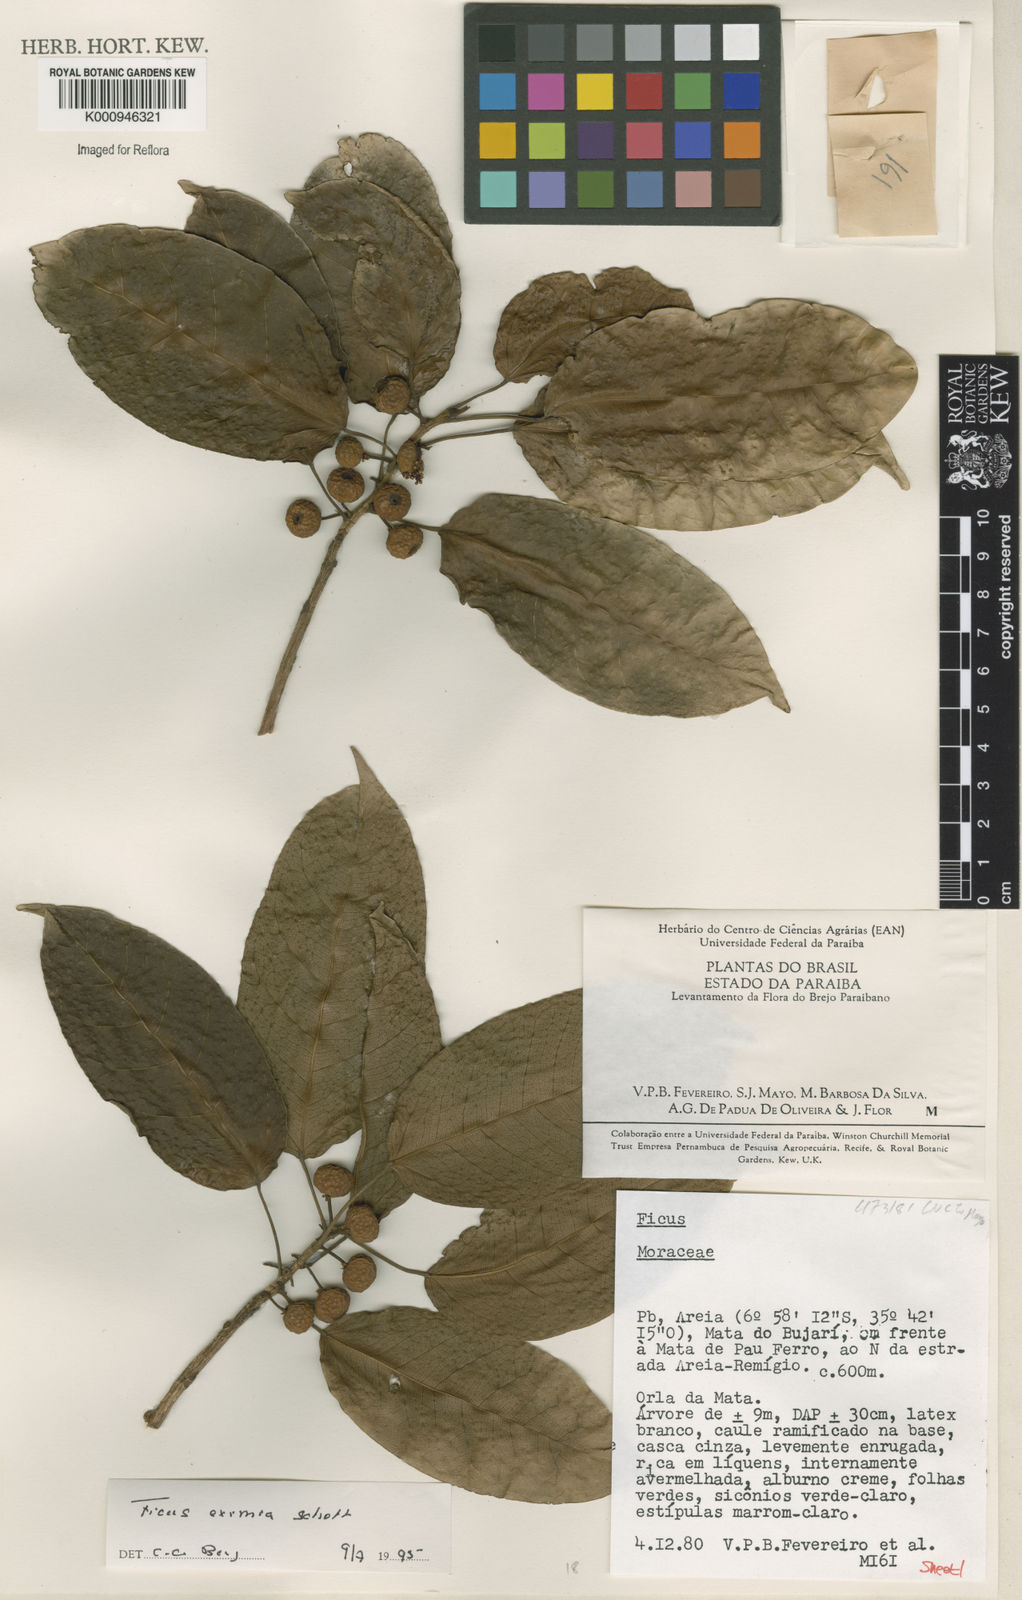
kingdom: Plantae
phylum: Tracheophyta
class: Magnoliopsida
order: Rosales
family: Moraceae
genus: Ficus
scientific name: Ficus eximia
